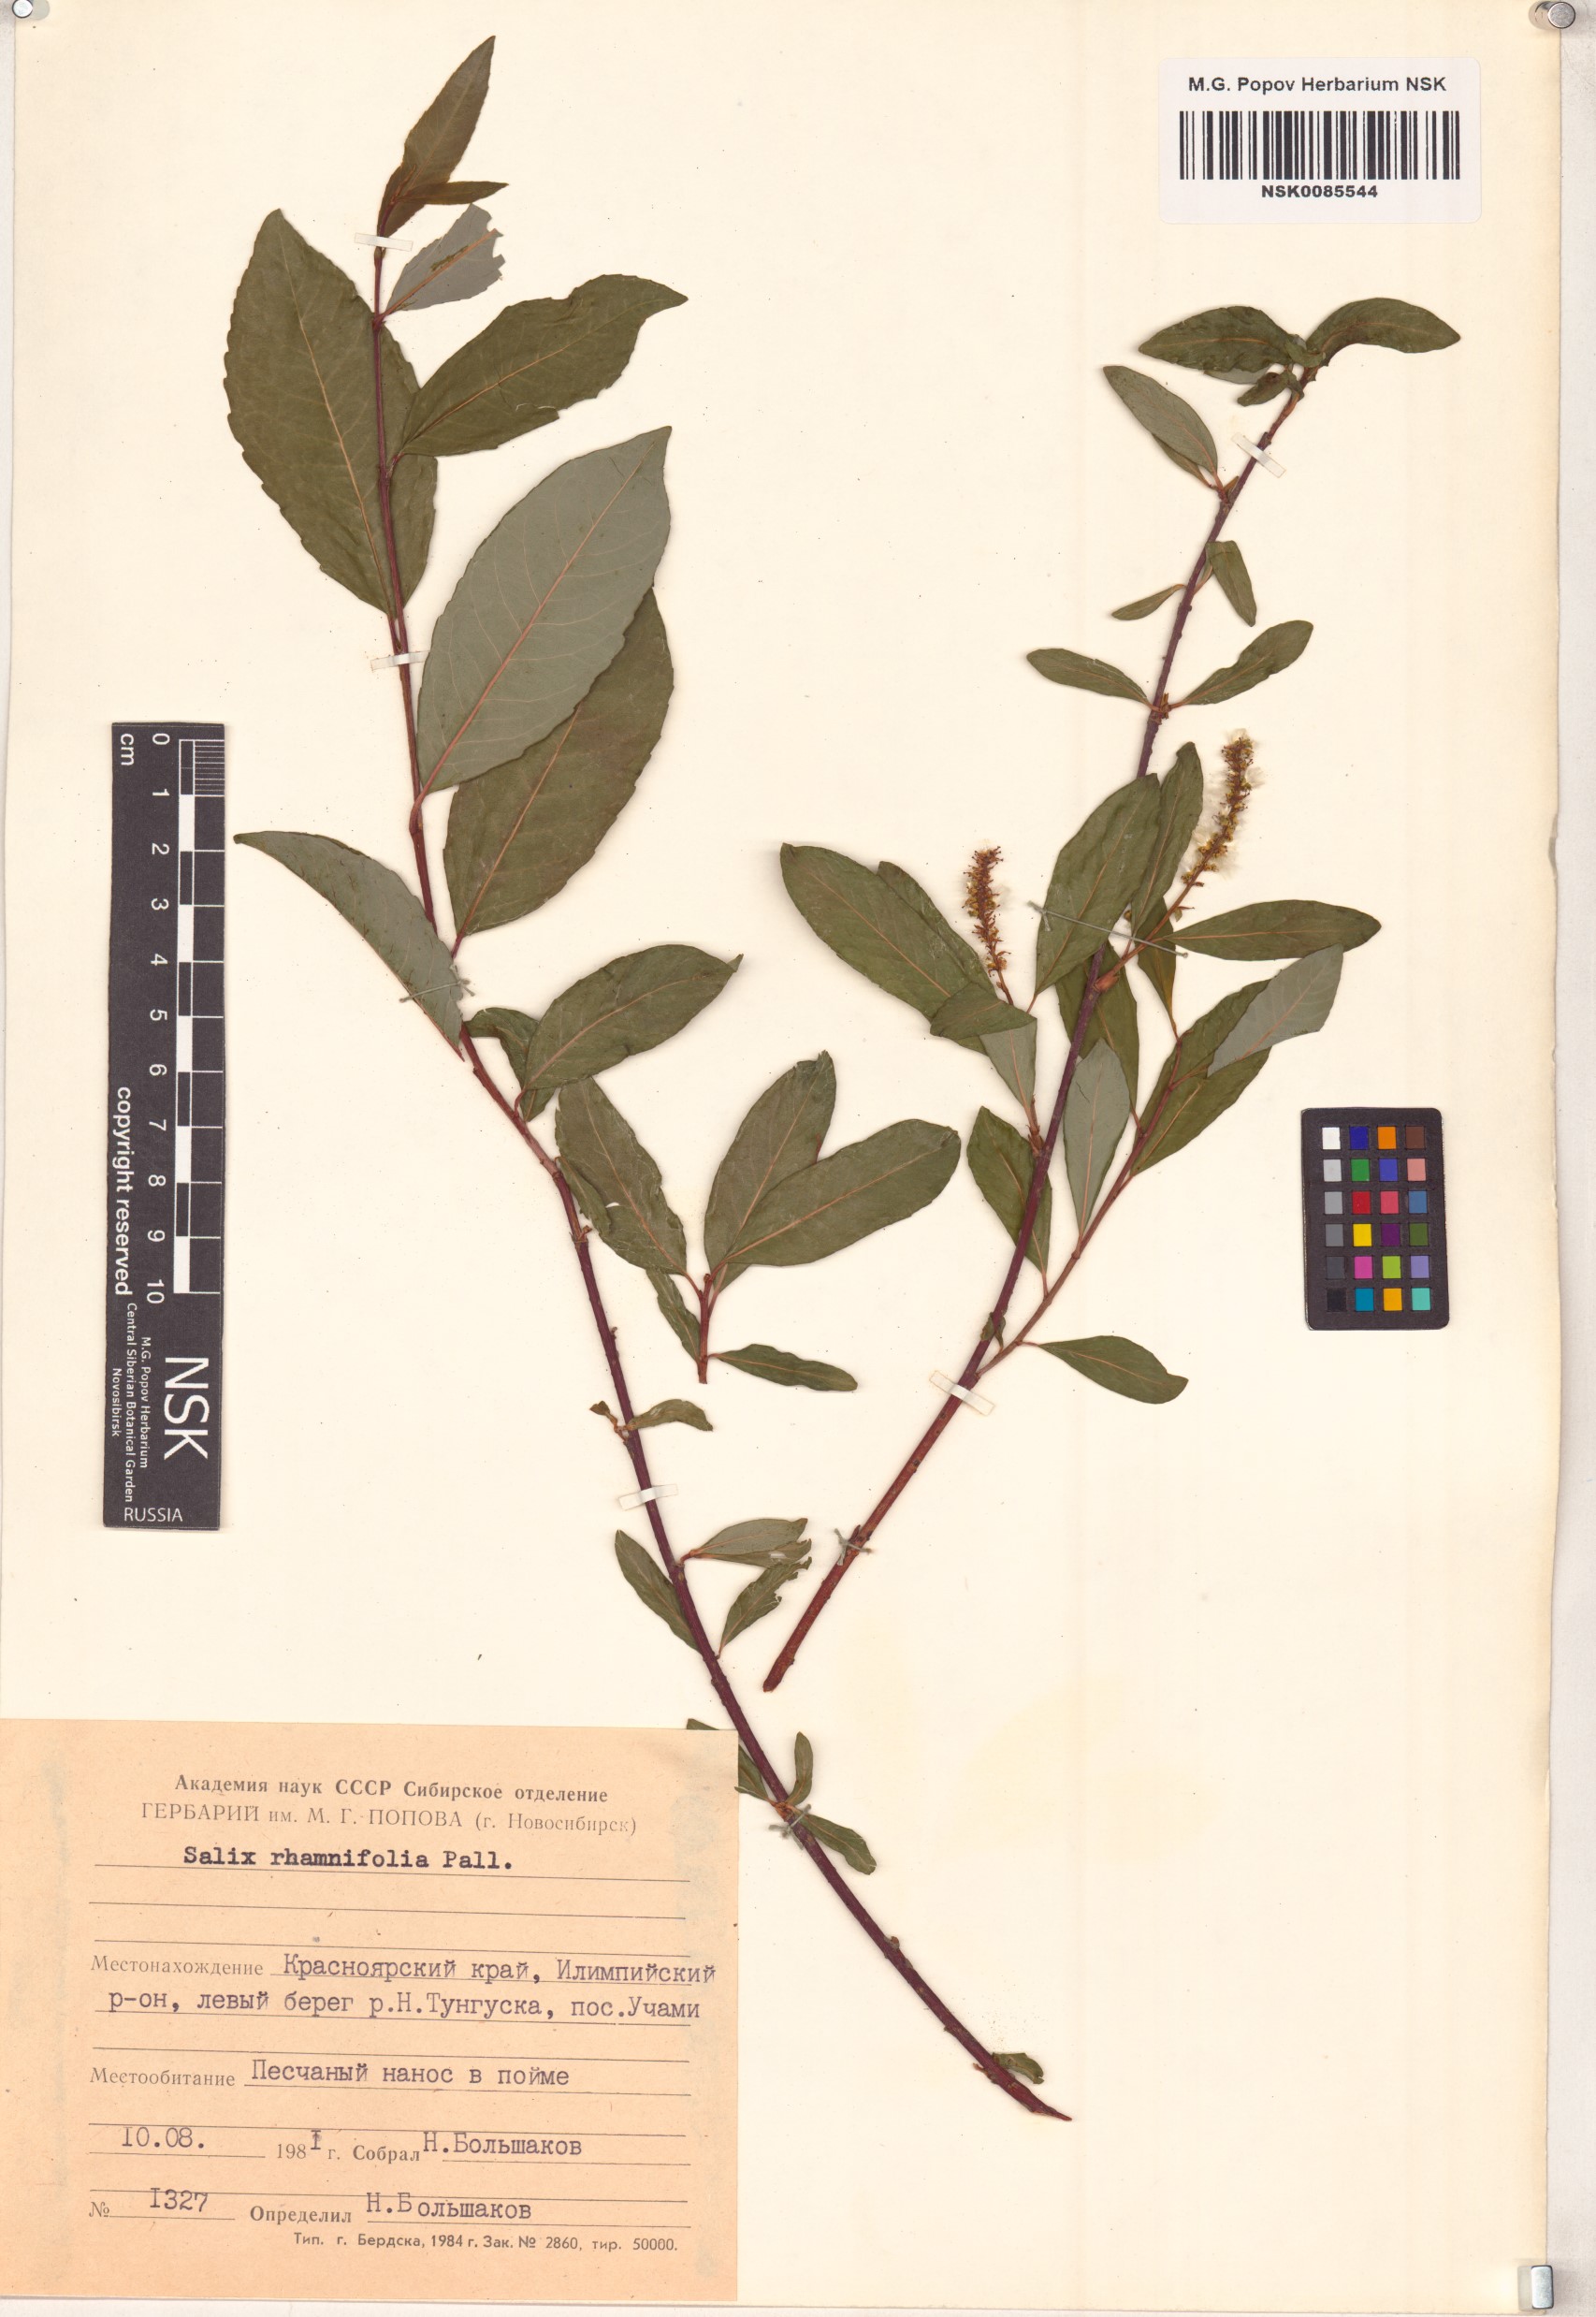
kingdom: Plantae
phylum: Tracheophyta
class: Magnoliopsida
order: Malpighiales
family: Salicaceae
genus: Salix
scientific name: Salix rhamnifolia
